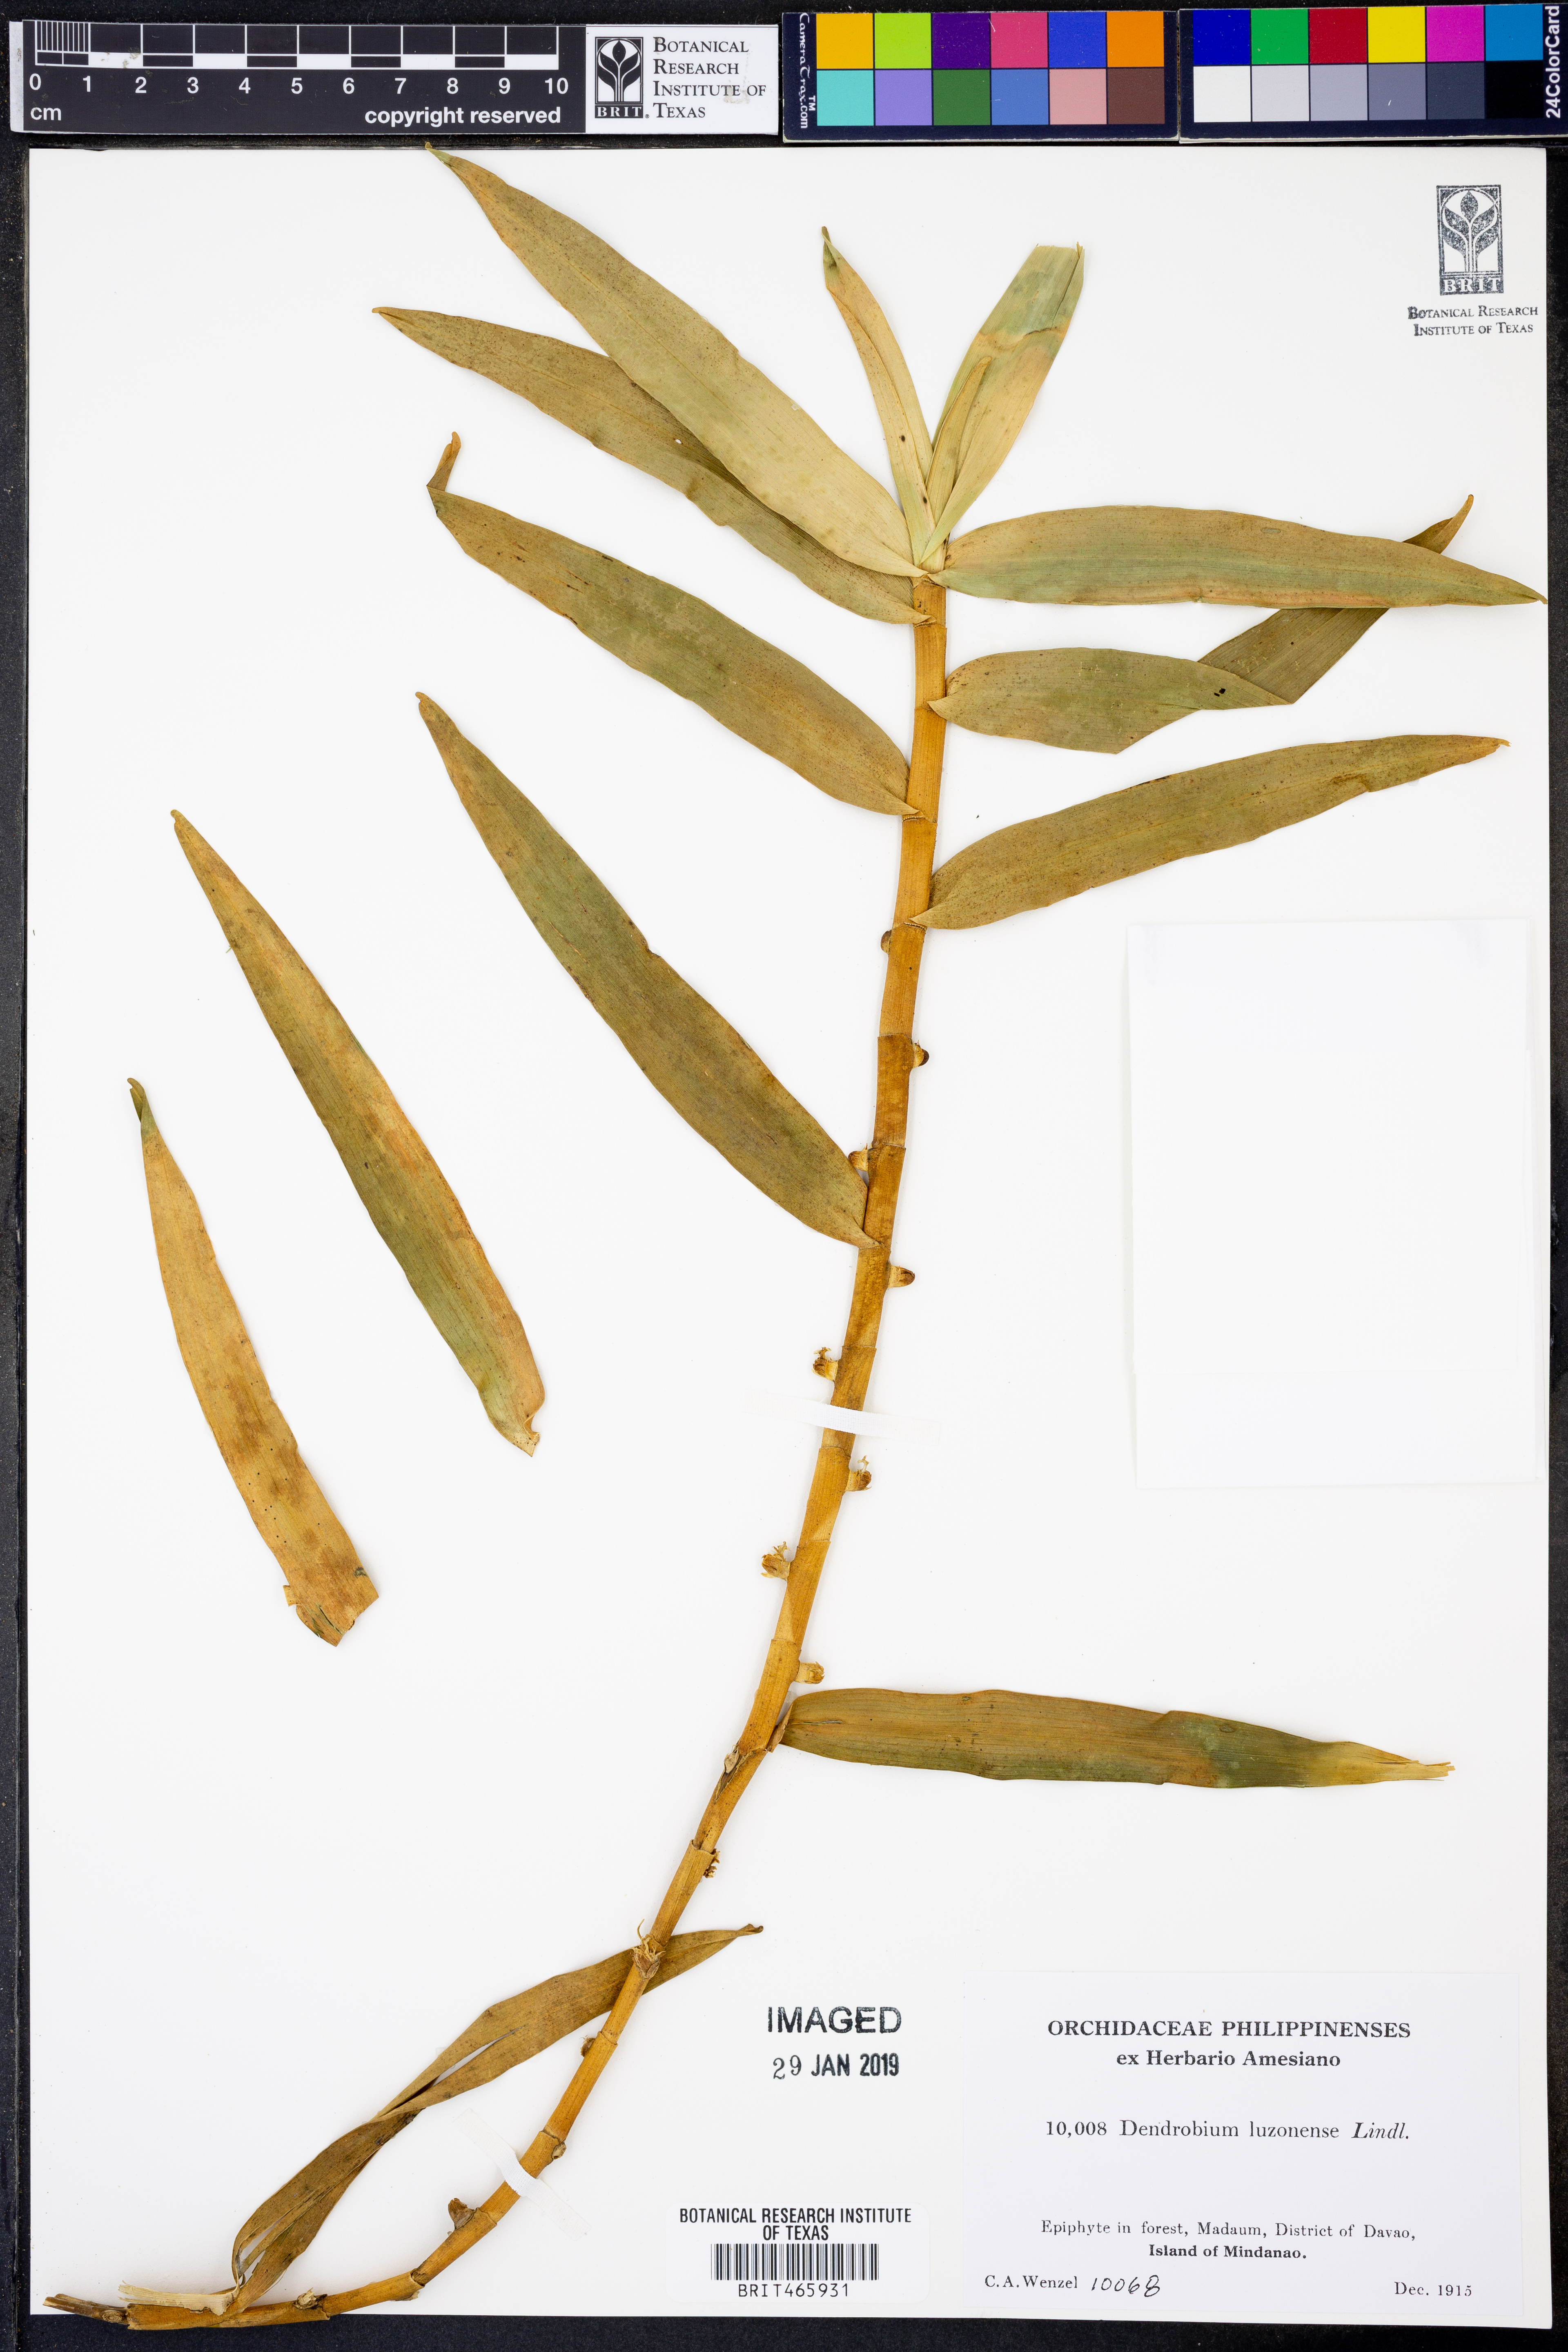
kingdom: Plantae
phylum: Tracheophyta
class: Liliopsida
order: Asparagales
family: Orchidaceae
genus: Dendrobium
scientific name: Dendrobium luzonense
